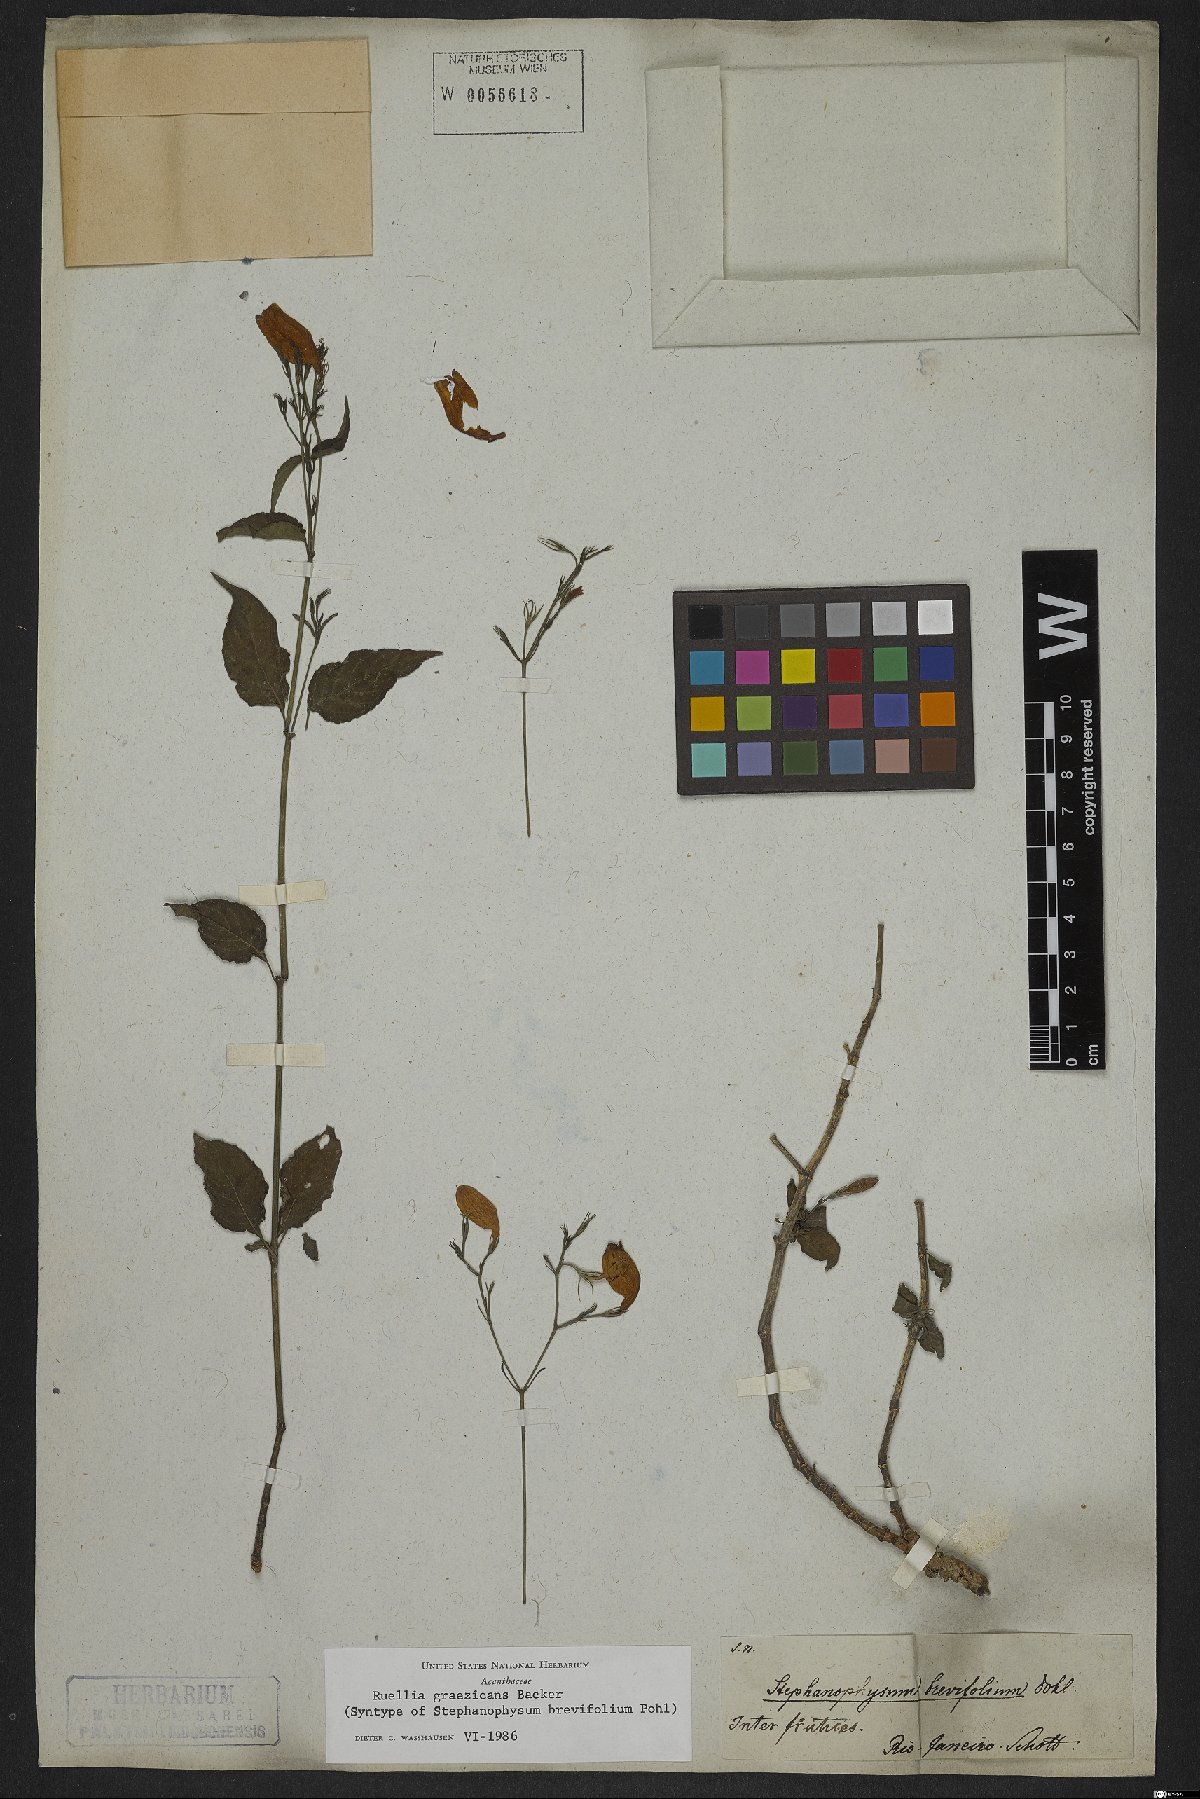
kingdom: Plantae
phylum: Tracheophyta
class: Magnoliopsida
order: Lamiales
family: Acanthaceae
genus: Ruellia
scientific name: Ruellia brevifolia
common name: Tropical wild petunia
